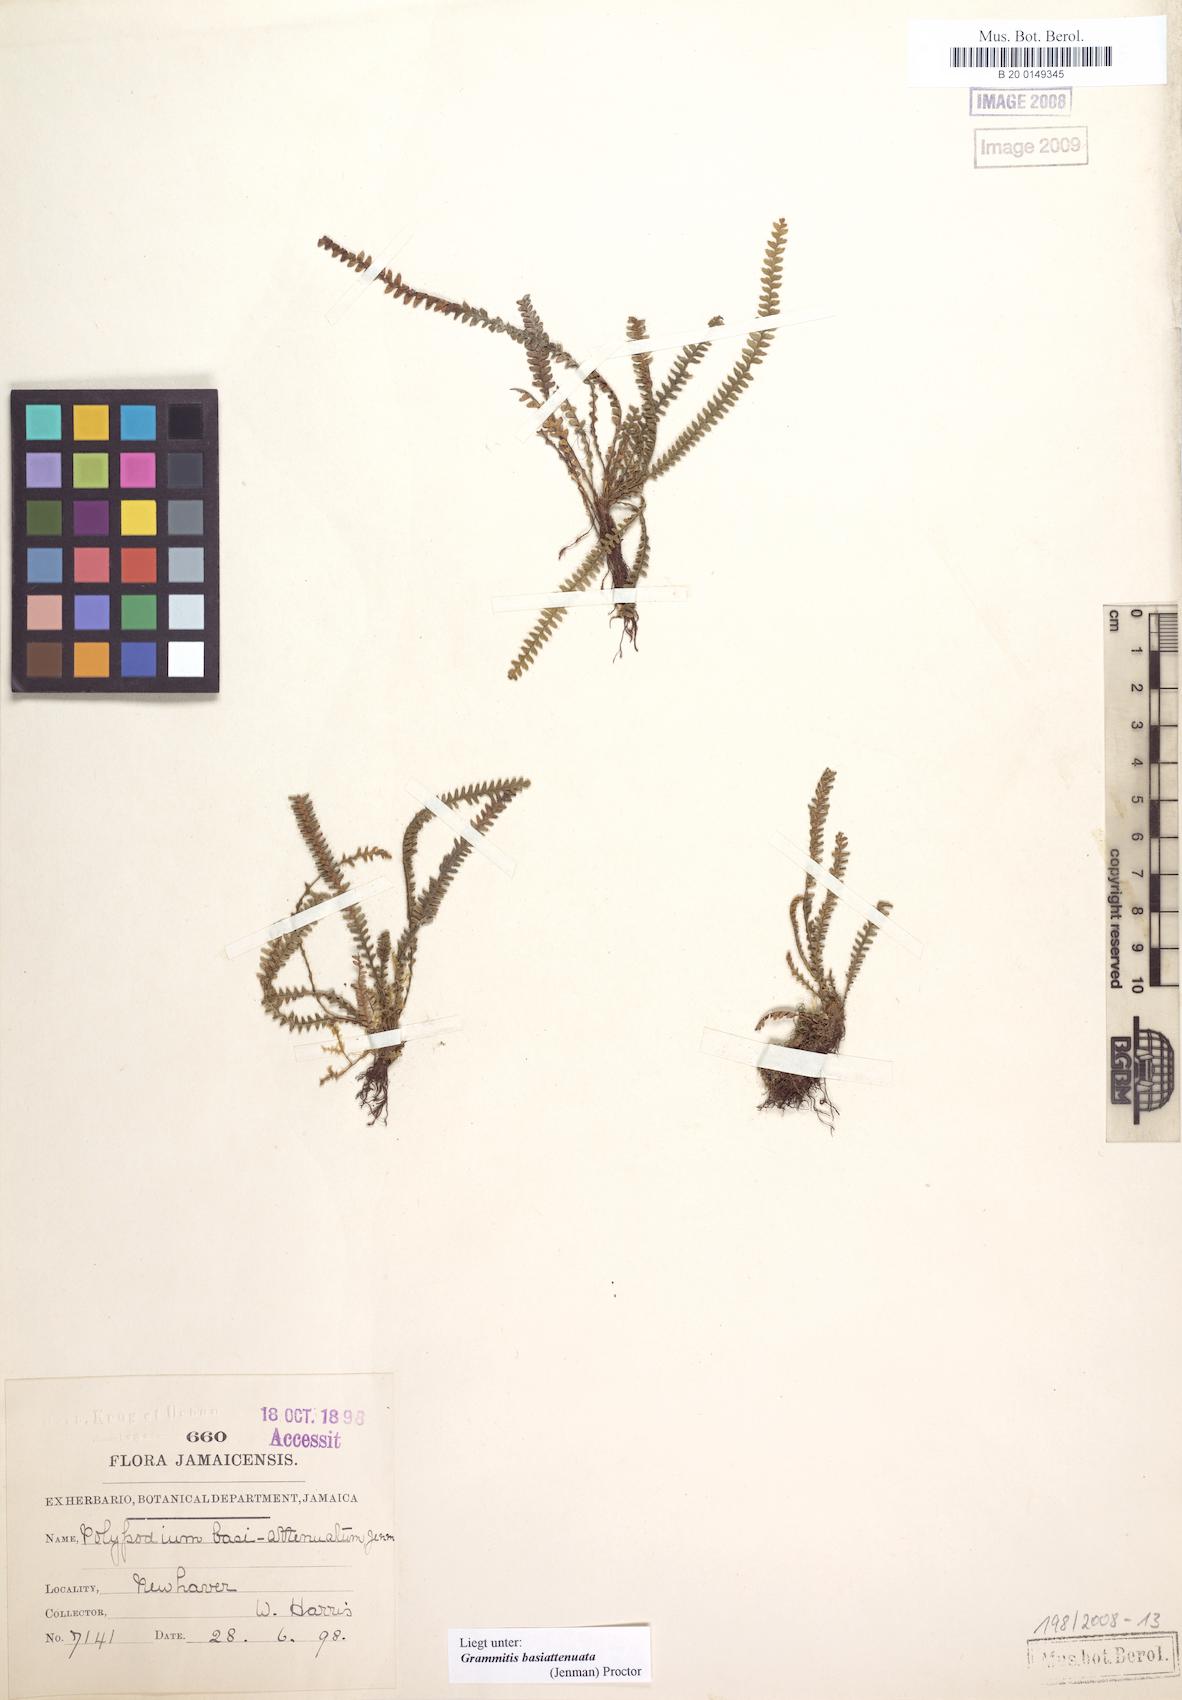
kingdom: Plantae
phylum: Tracheophyta
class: Polypodiopsida
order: Polypodiales
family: Polypodiaceae
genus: Moranopteris
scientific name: Moranopteris trichomanoides
